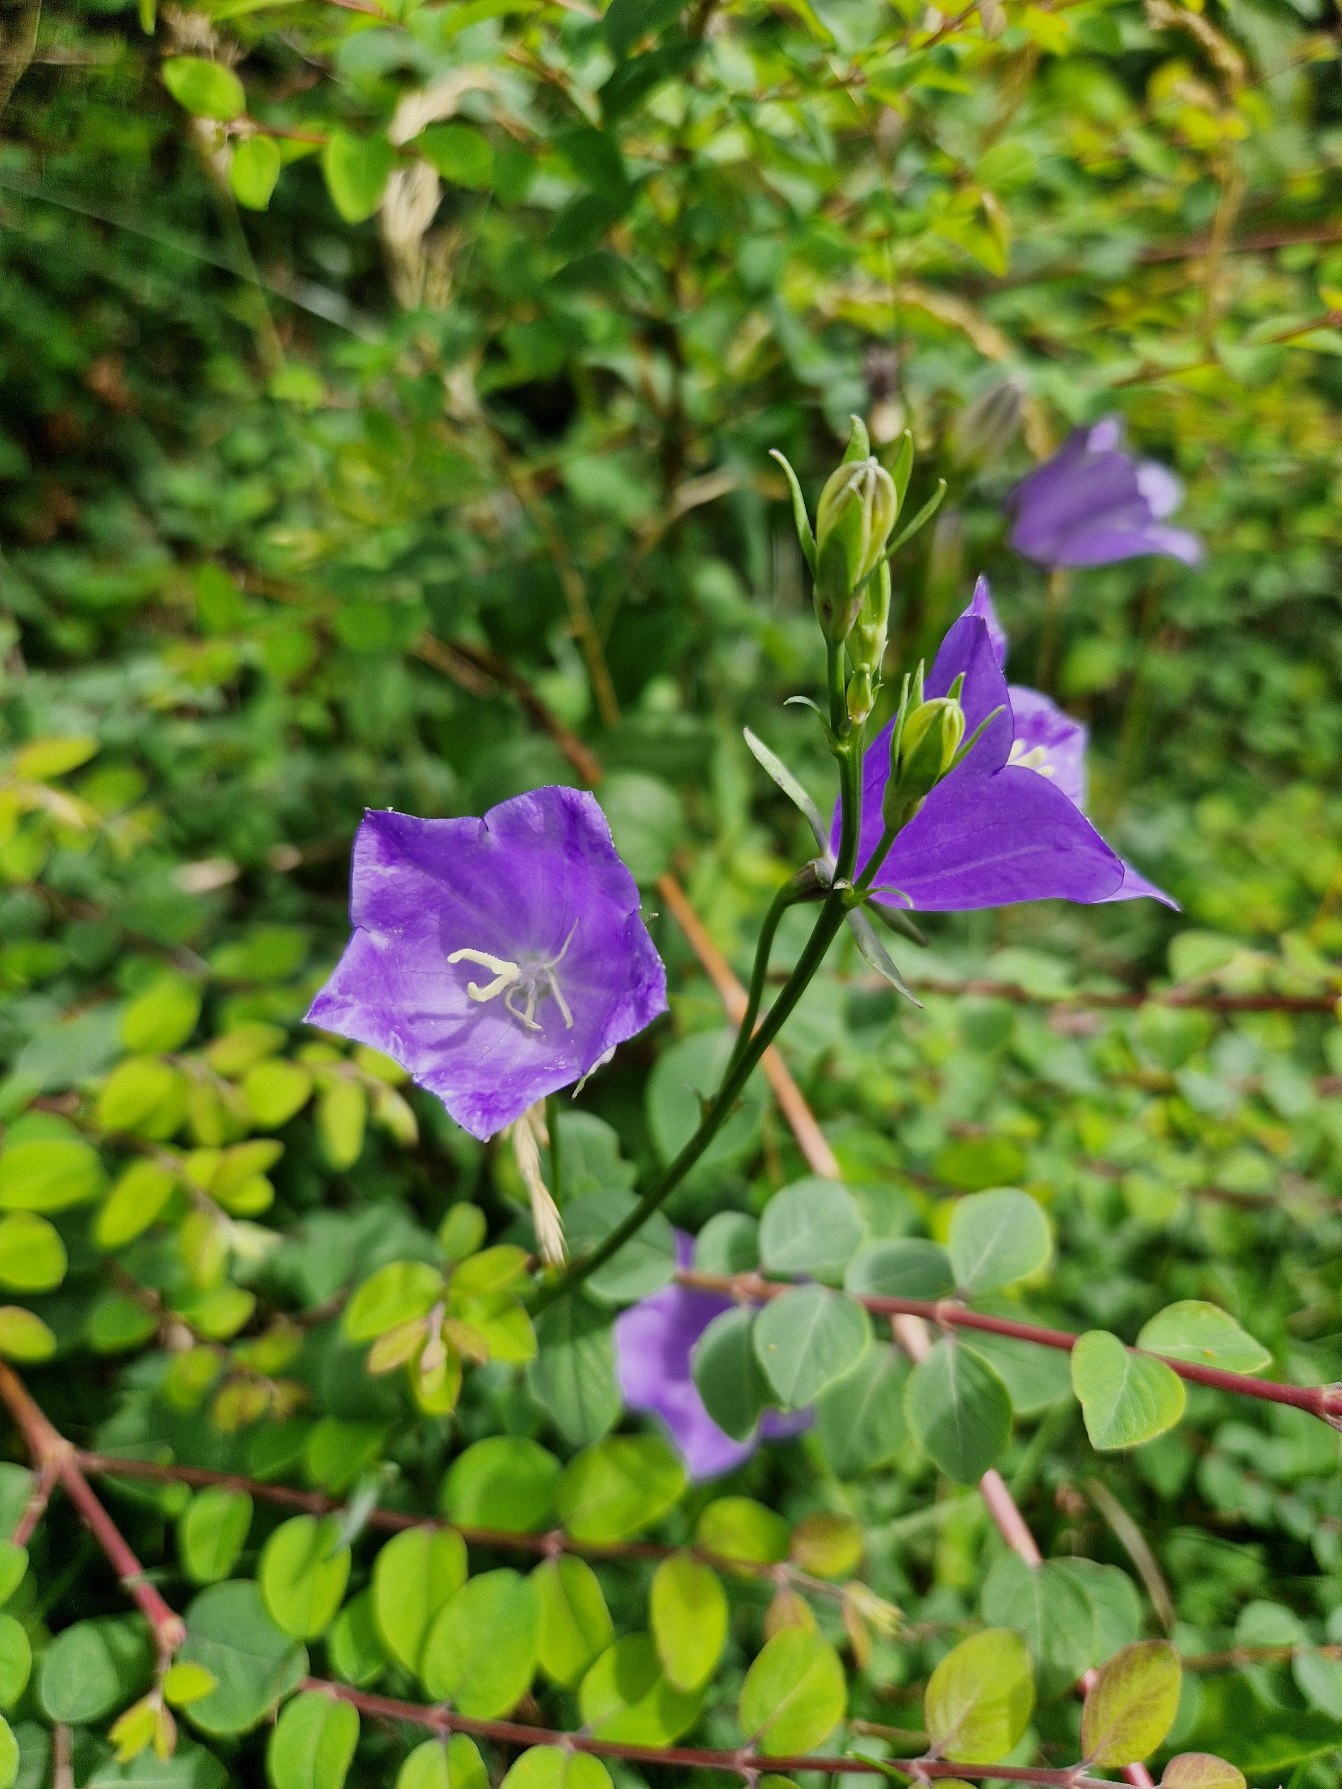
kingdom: Plantae
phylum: Tracheophyta
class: Magnoliopsida
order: Asterales
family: Campanulaceae
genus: Campanula
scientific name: Campanula persicifolia
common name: Smalbladet klokke
